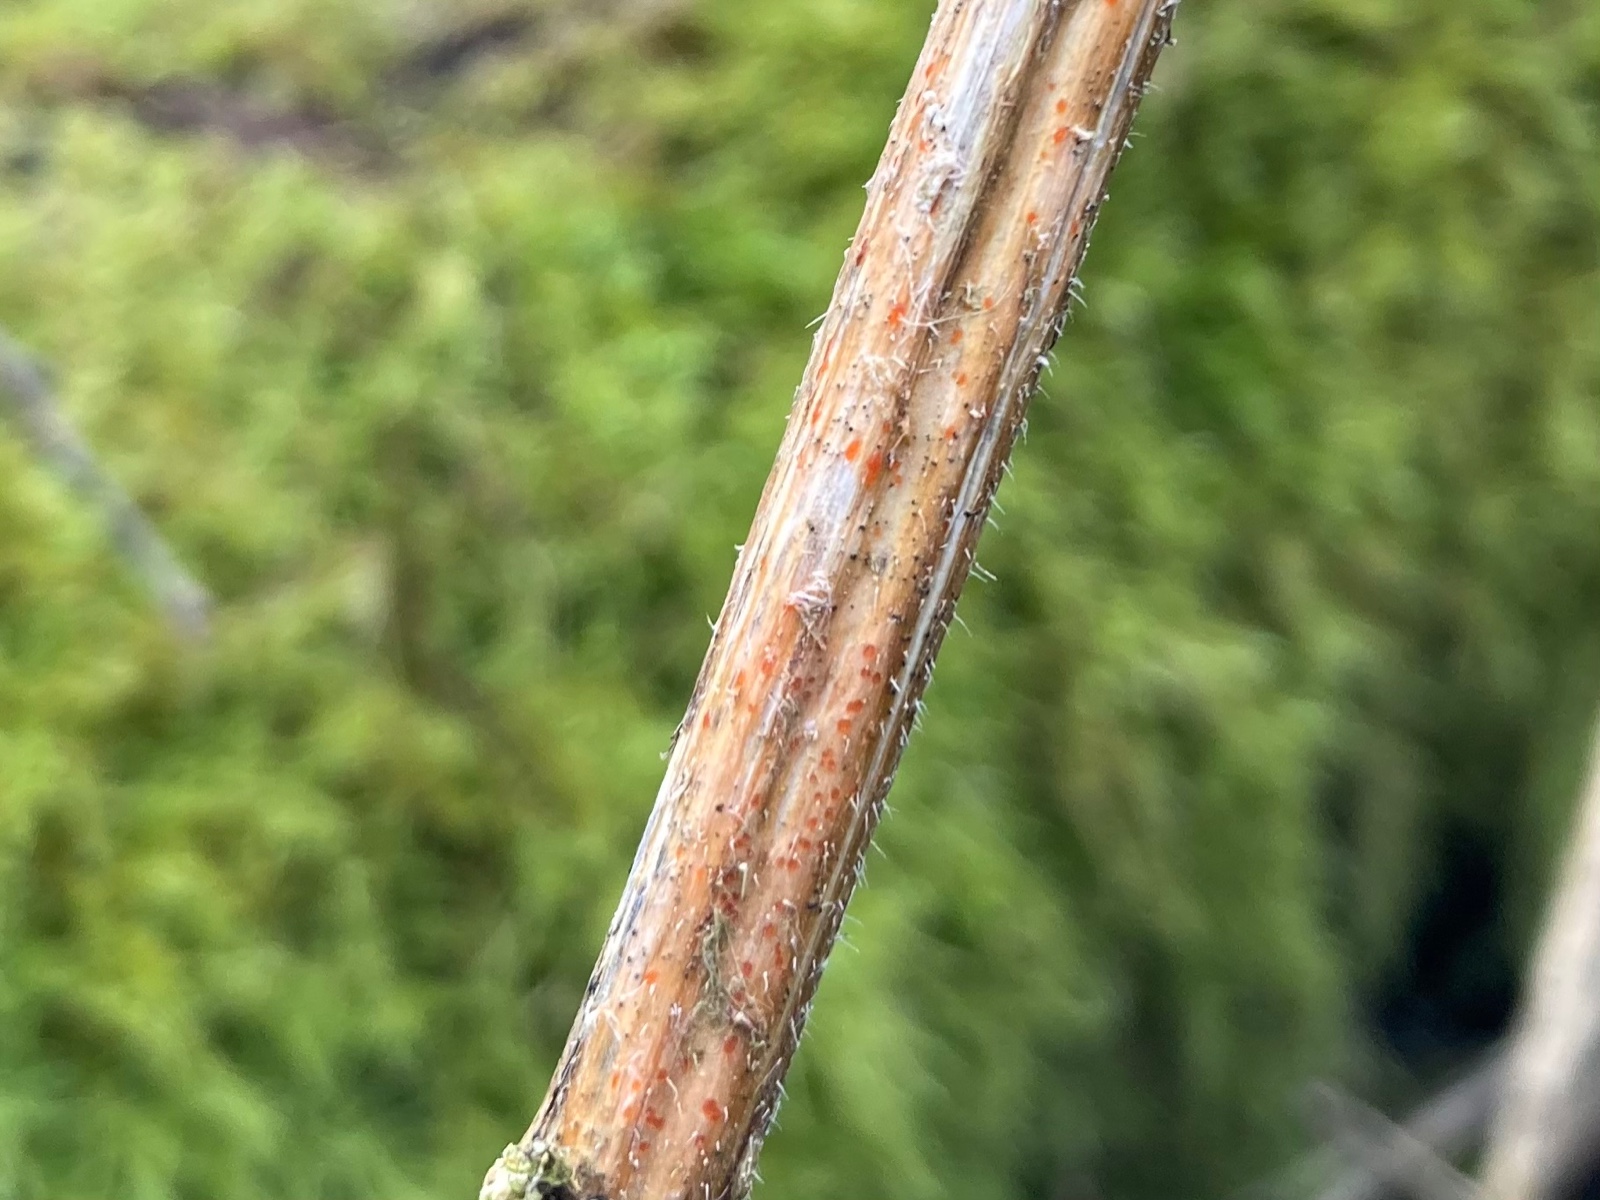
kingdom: Fungi
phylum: Ascomycota
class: Leotiomycetes
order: Helotiales
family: Calloriaceae
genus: Calloria
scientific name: Calloria urticae
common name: nælde-orangeskive
